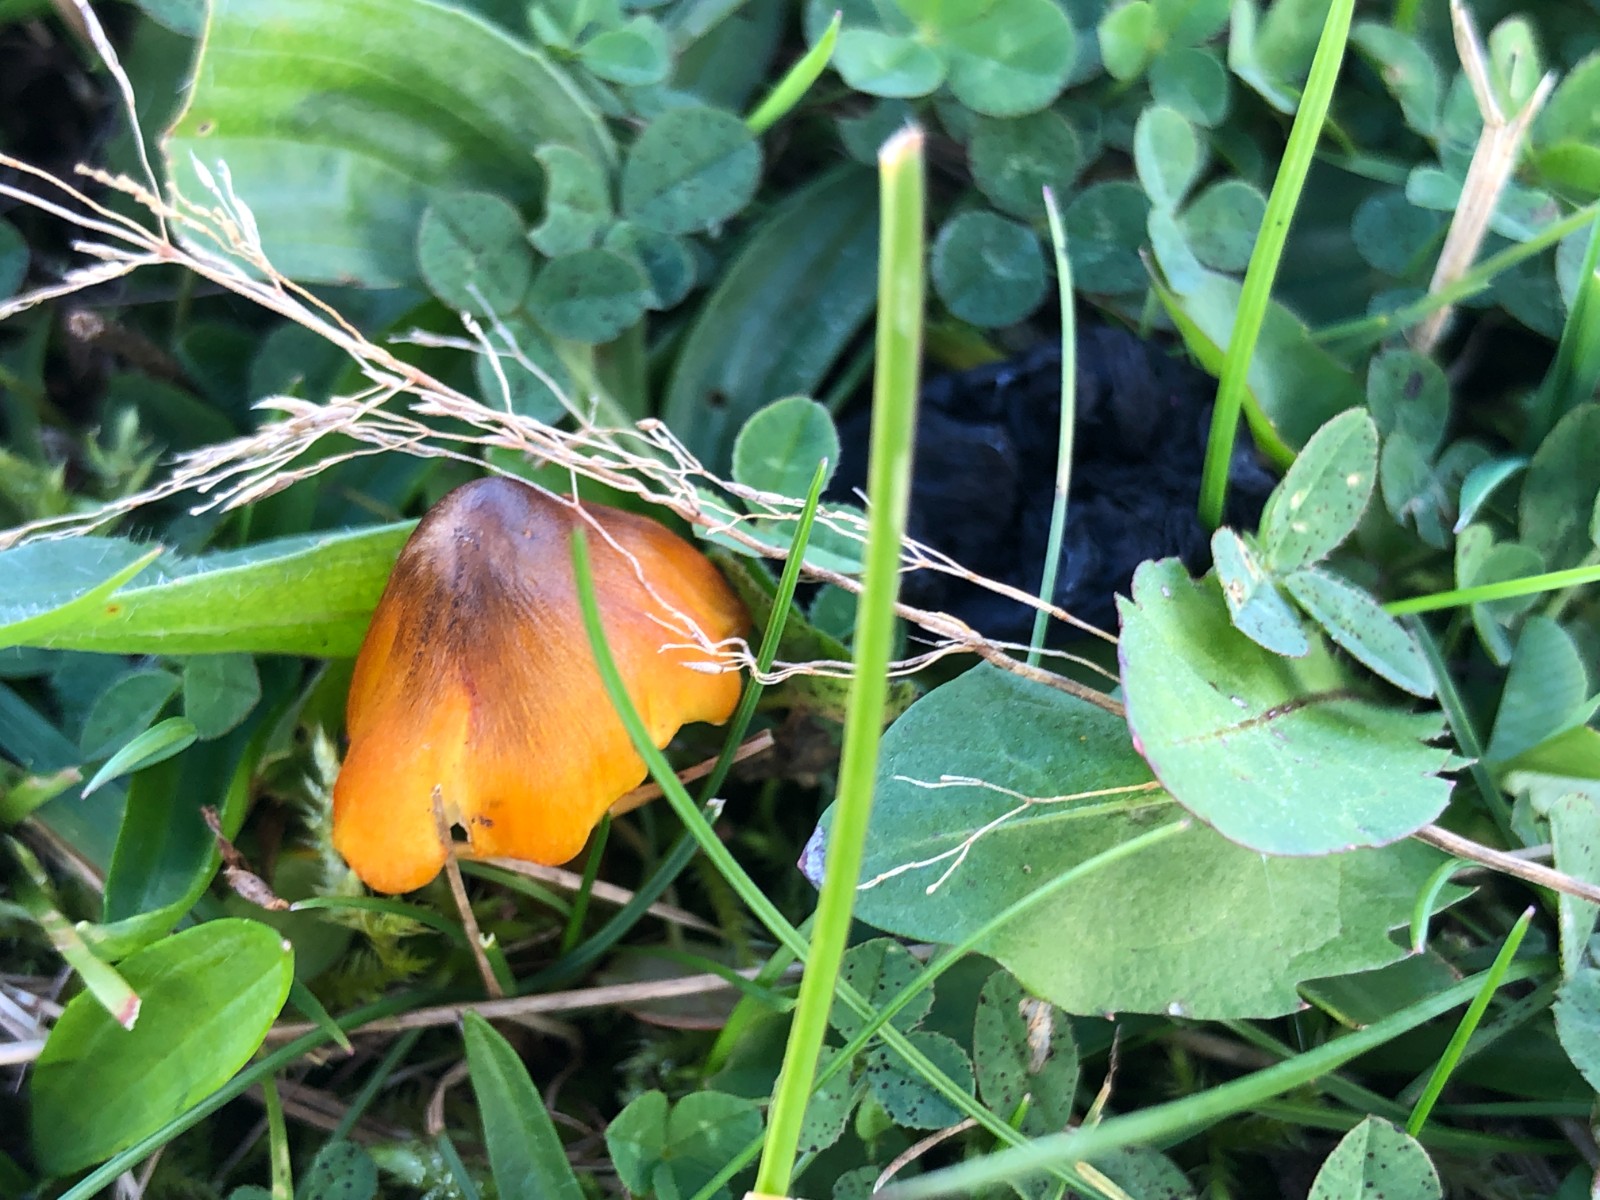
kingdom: Fungi
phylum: Basidiomycota
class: Agaricomycetes
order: Agaricales
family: Hygrophoraceae
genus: Hygrocybe
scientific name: Hygrocybe conica
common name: kegle-vokshat
